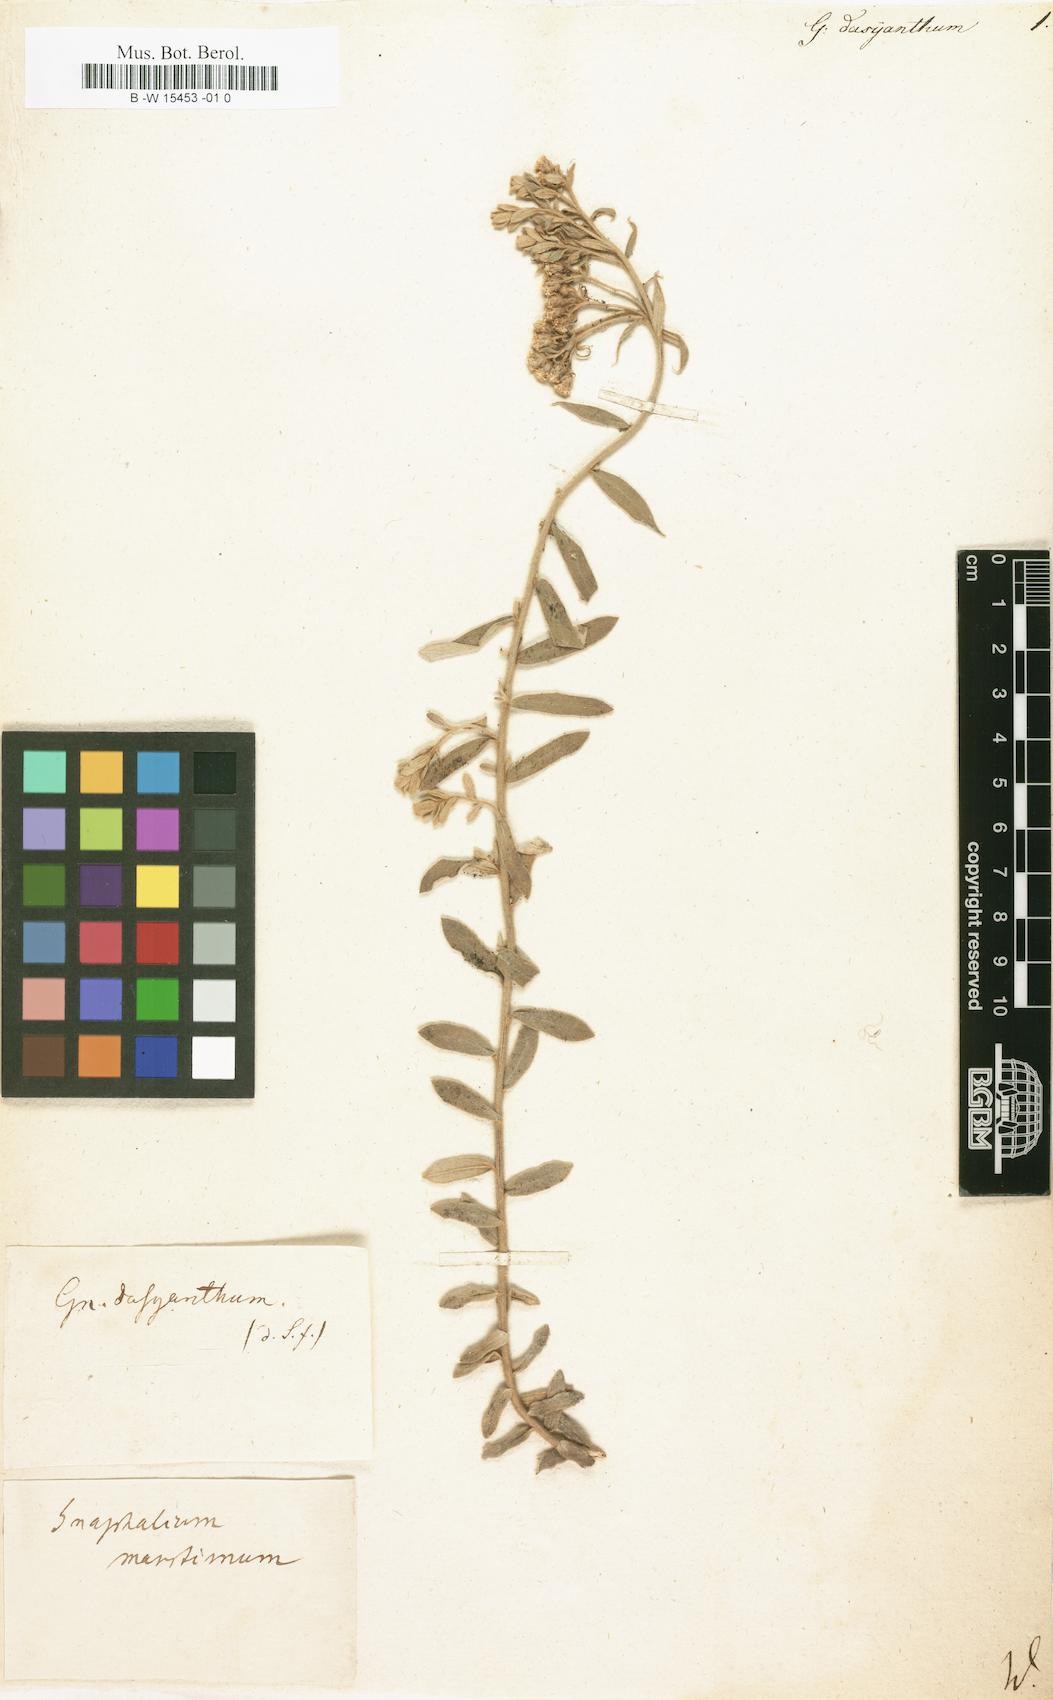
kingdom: Plantae
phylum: Tracheophyta
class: Magnoliopsida
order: Asterales
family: Asteraceae
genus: Helichrysum
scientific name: Helichrysum dasyanthum
